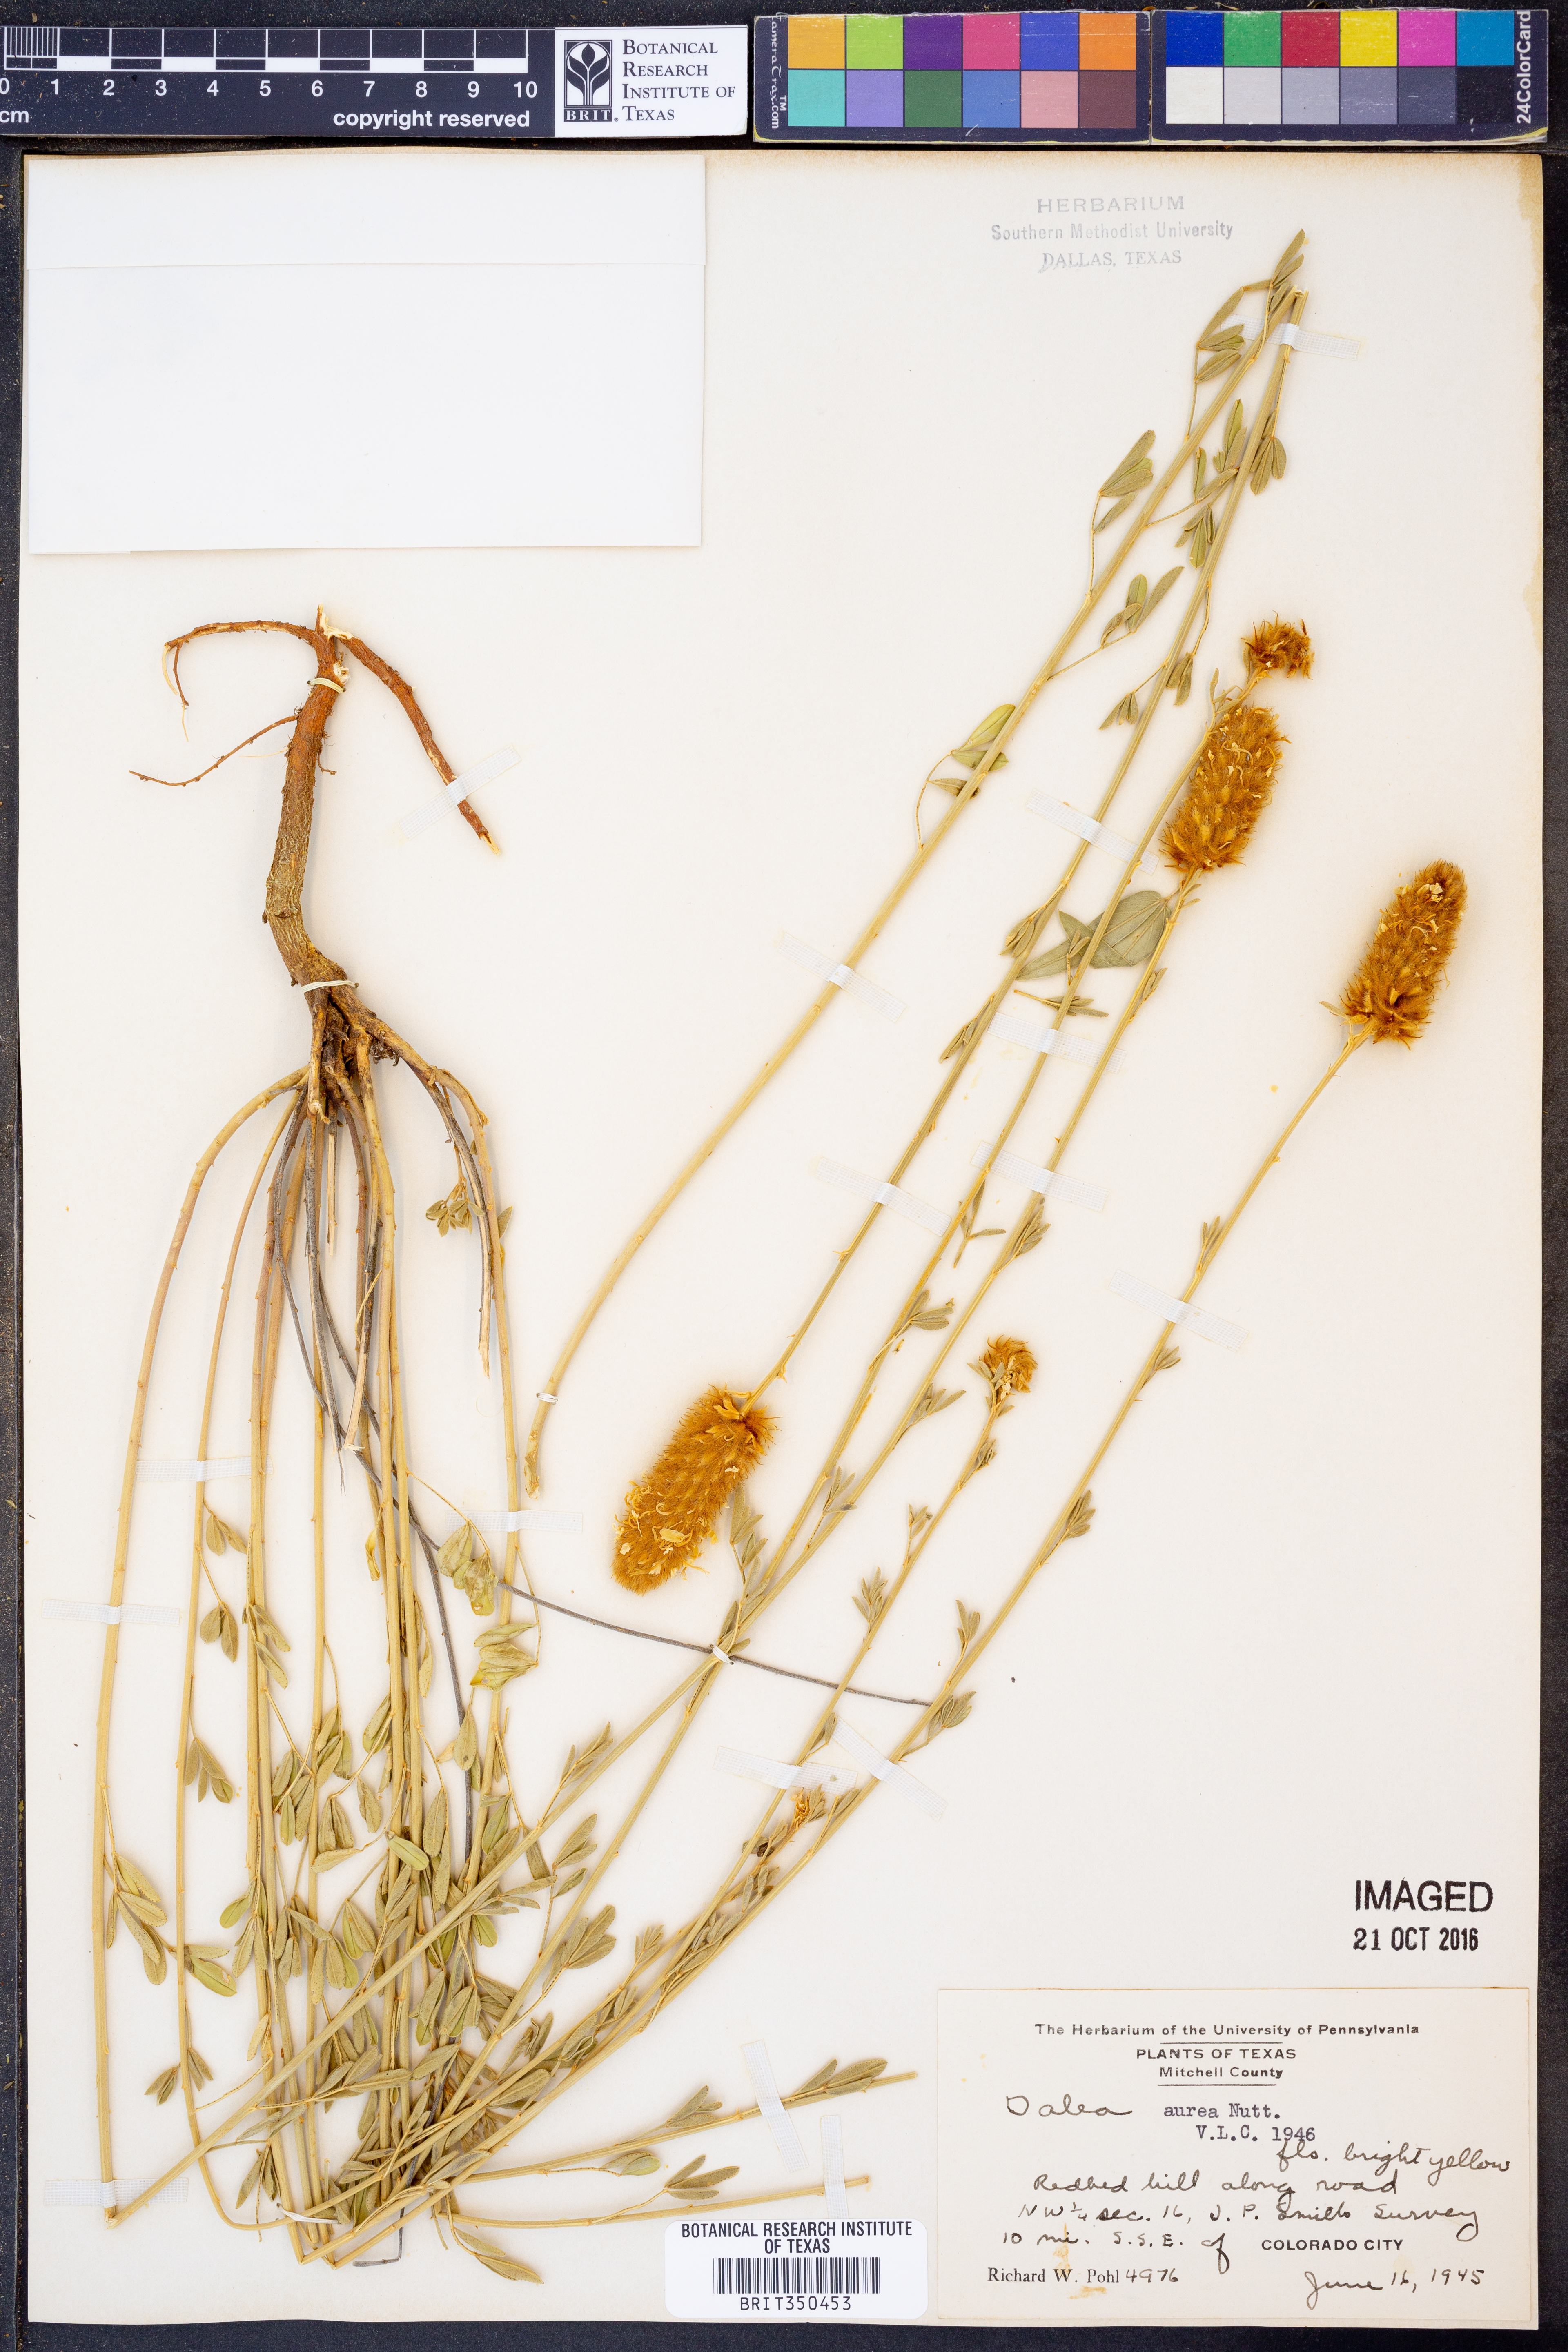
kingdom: Plantae
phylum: Tracheophyta
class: Magnoliopsida
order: Fabales
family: Fabaceae
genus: Dalea
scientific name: Dalea aurea
